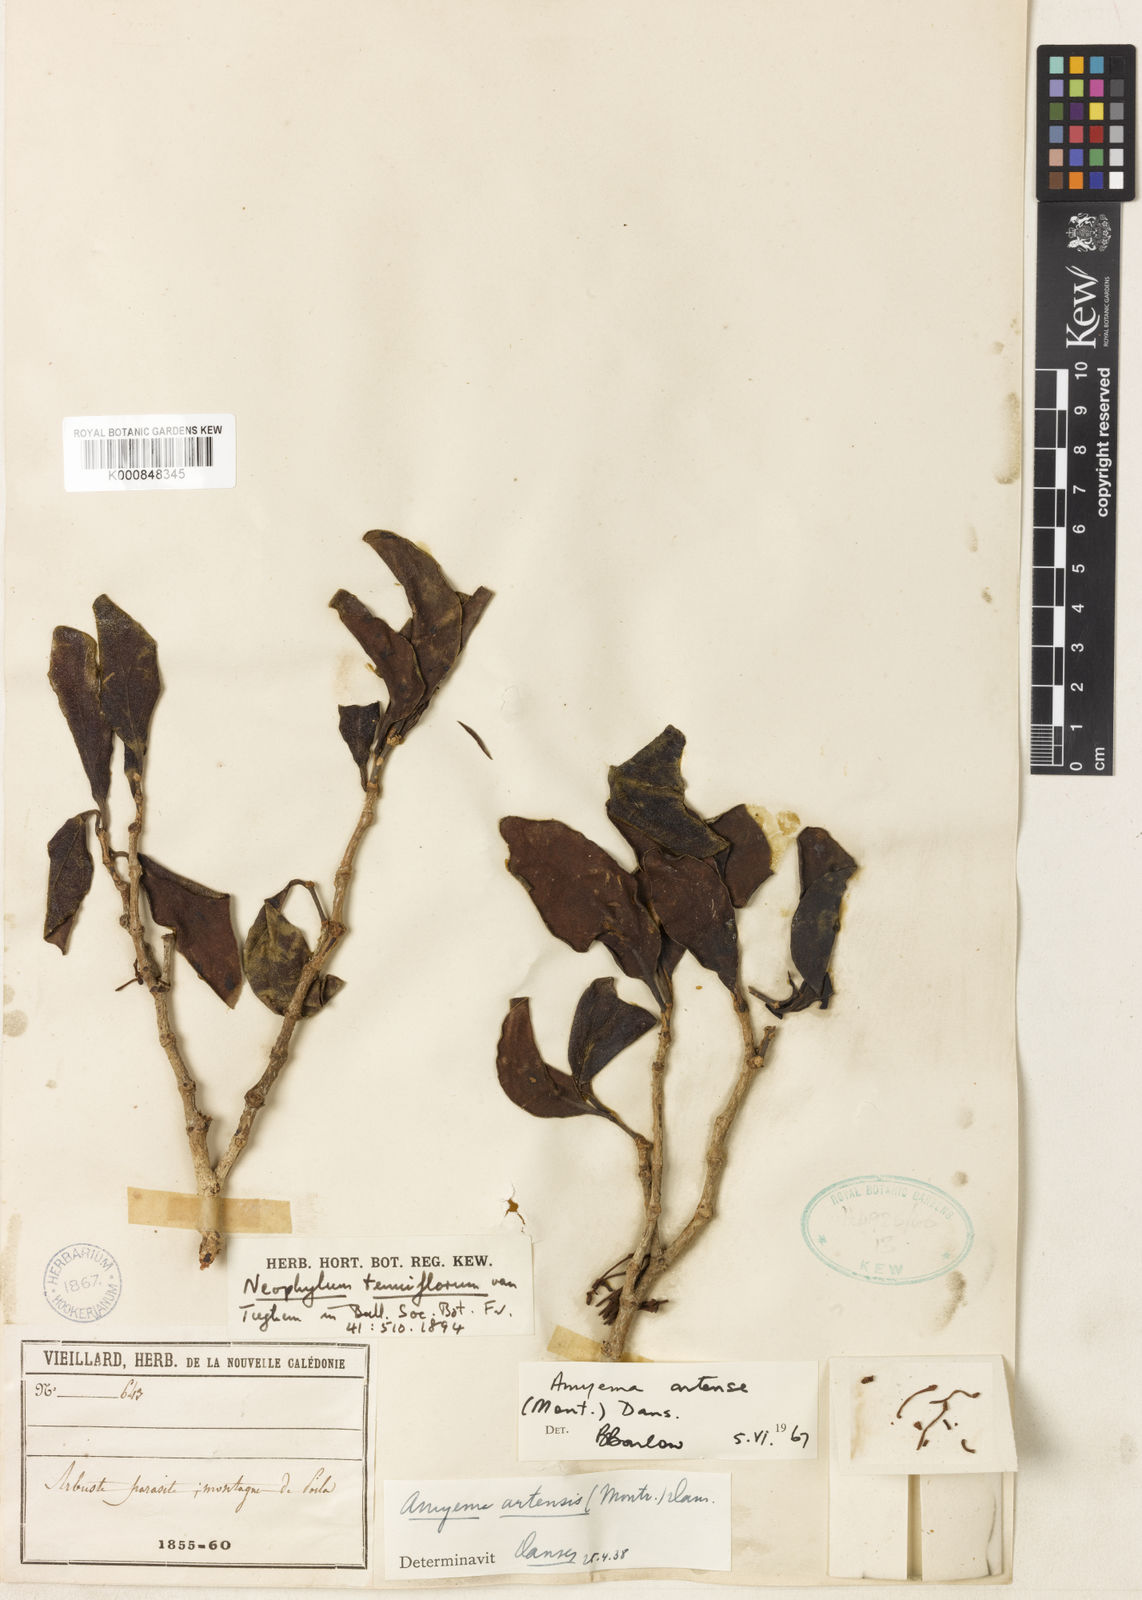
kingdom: Plantae
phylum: Tracheophyta
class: Magnoliopsida
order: Santalales
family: Loranthaceae
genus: Amyema
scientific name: Amyema artensis
